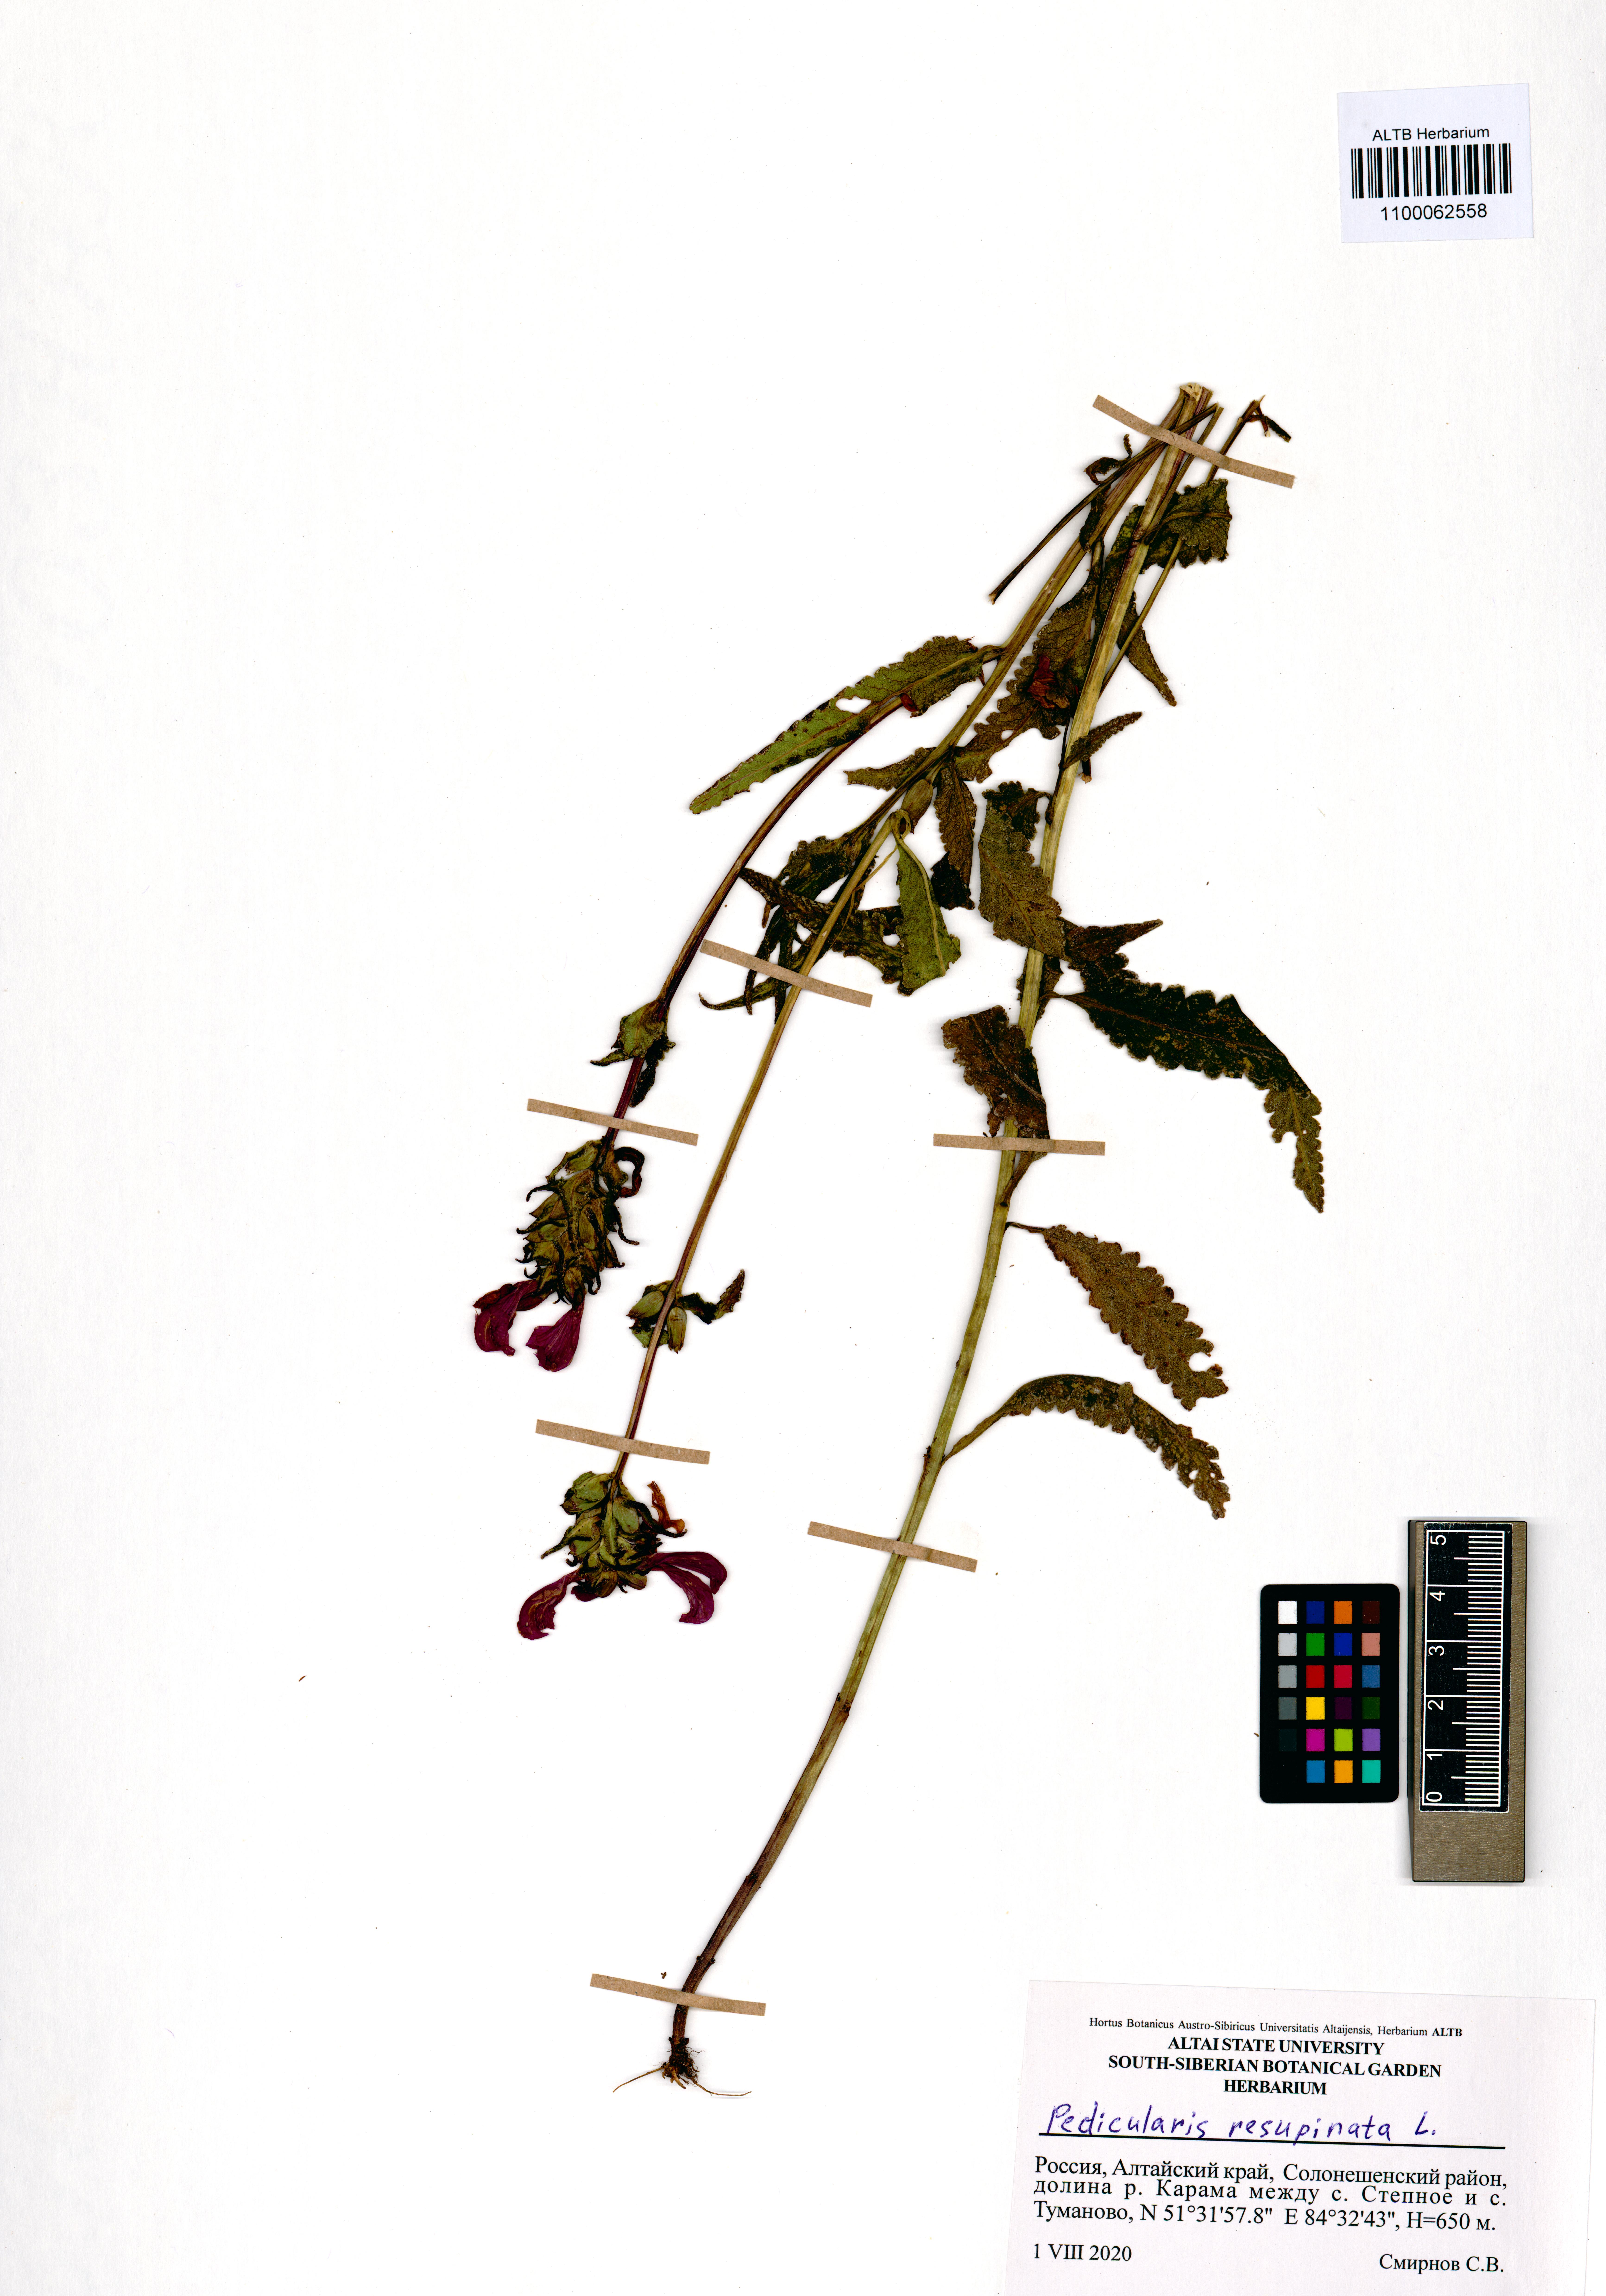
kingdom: Plantae
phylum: Tracheophyta
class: Magnoliopsida
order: Lamiales
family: Orobanchaceae
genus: Pedicularis
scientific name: Pedicularis resupinata
